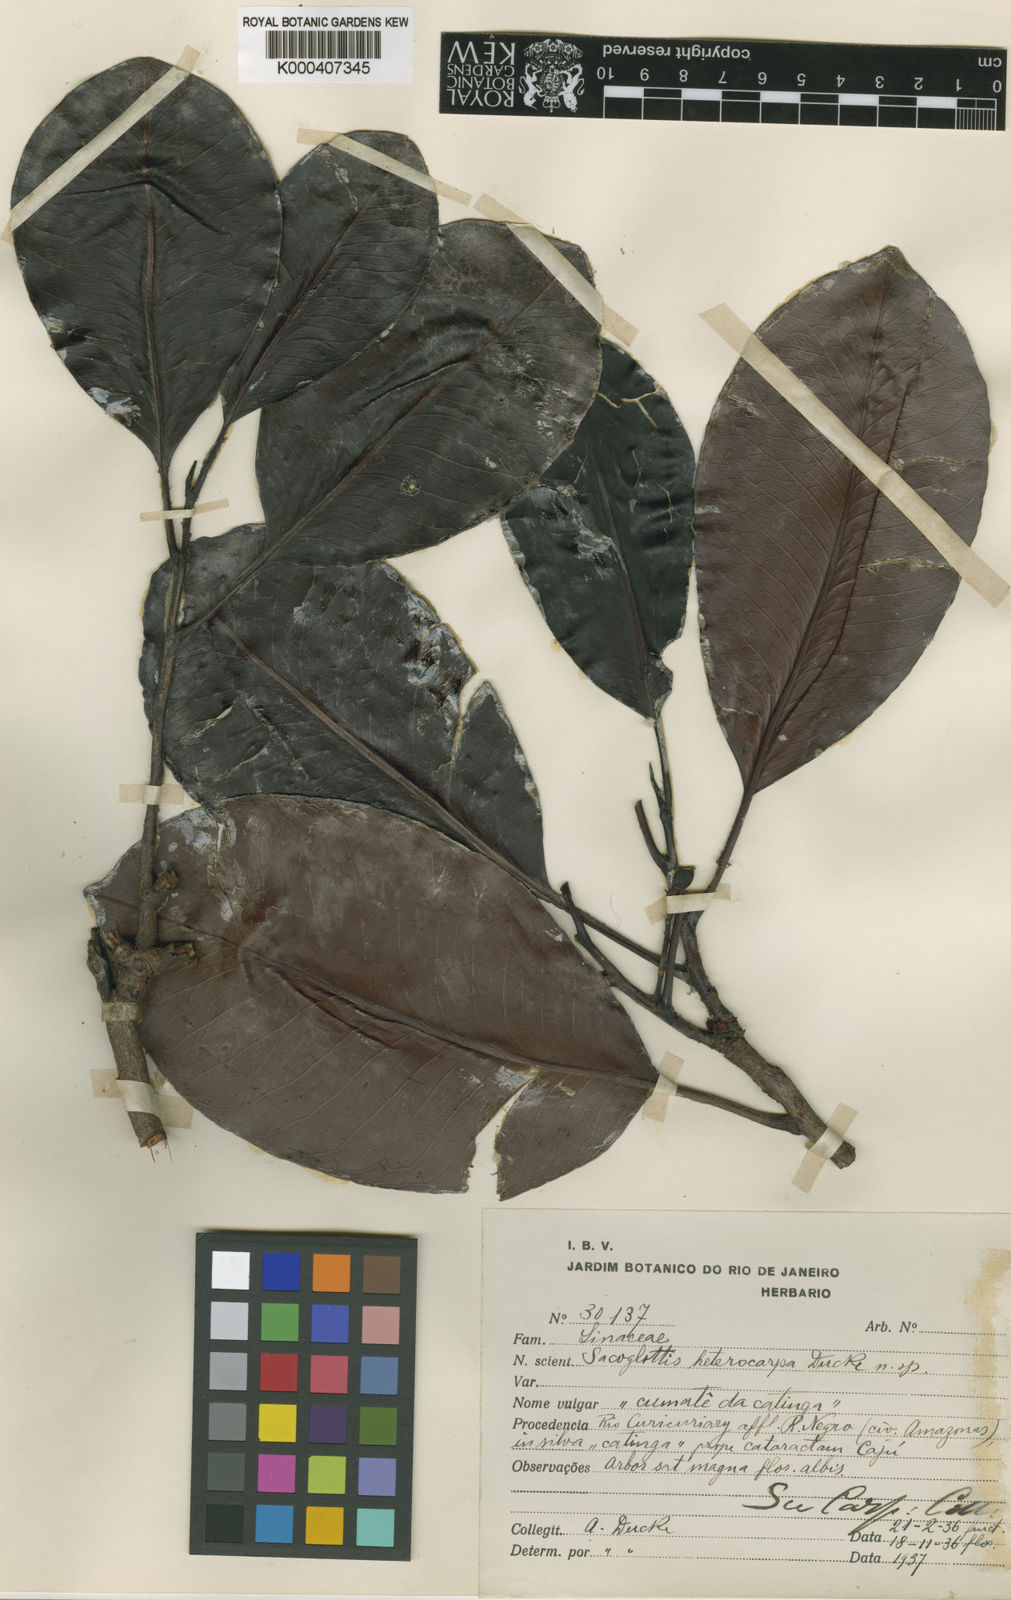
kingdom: Plantae
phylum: Tracheophyta
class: Magnoliopsida
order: Malpighiales
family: Humiriaceae
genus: Hylocarpa
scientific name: Hylocarpa heterocarpa
